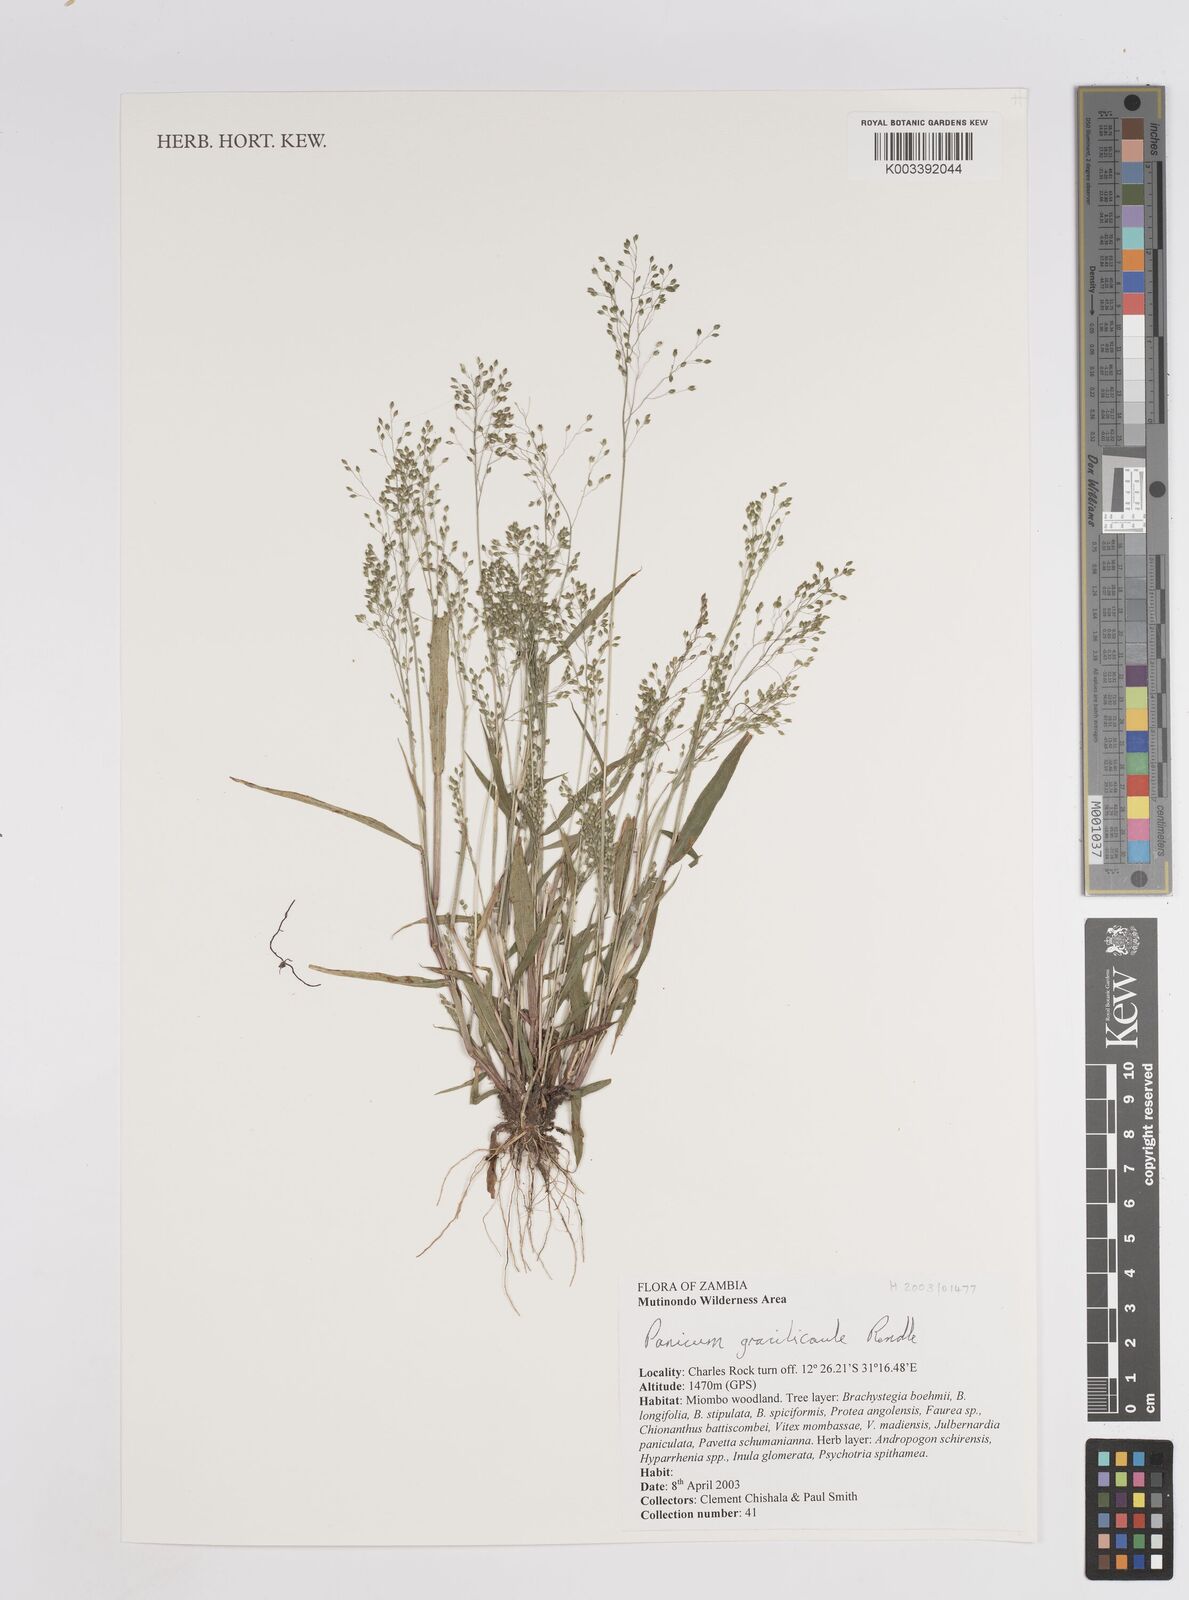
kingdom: Plantae
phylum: Tracheophyta
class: Liliopsida
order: Poales
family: Poaceae
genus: Trichanthecium
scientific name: Trichanthecium gracilicaule
